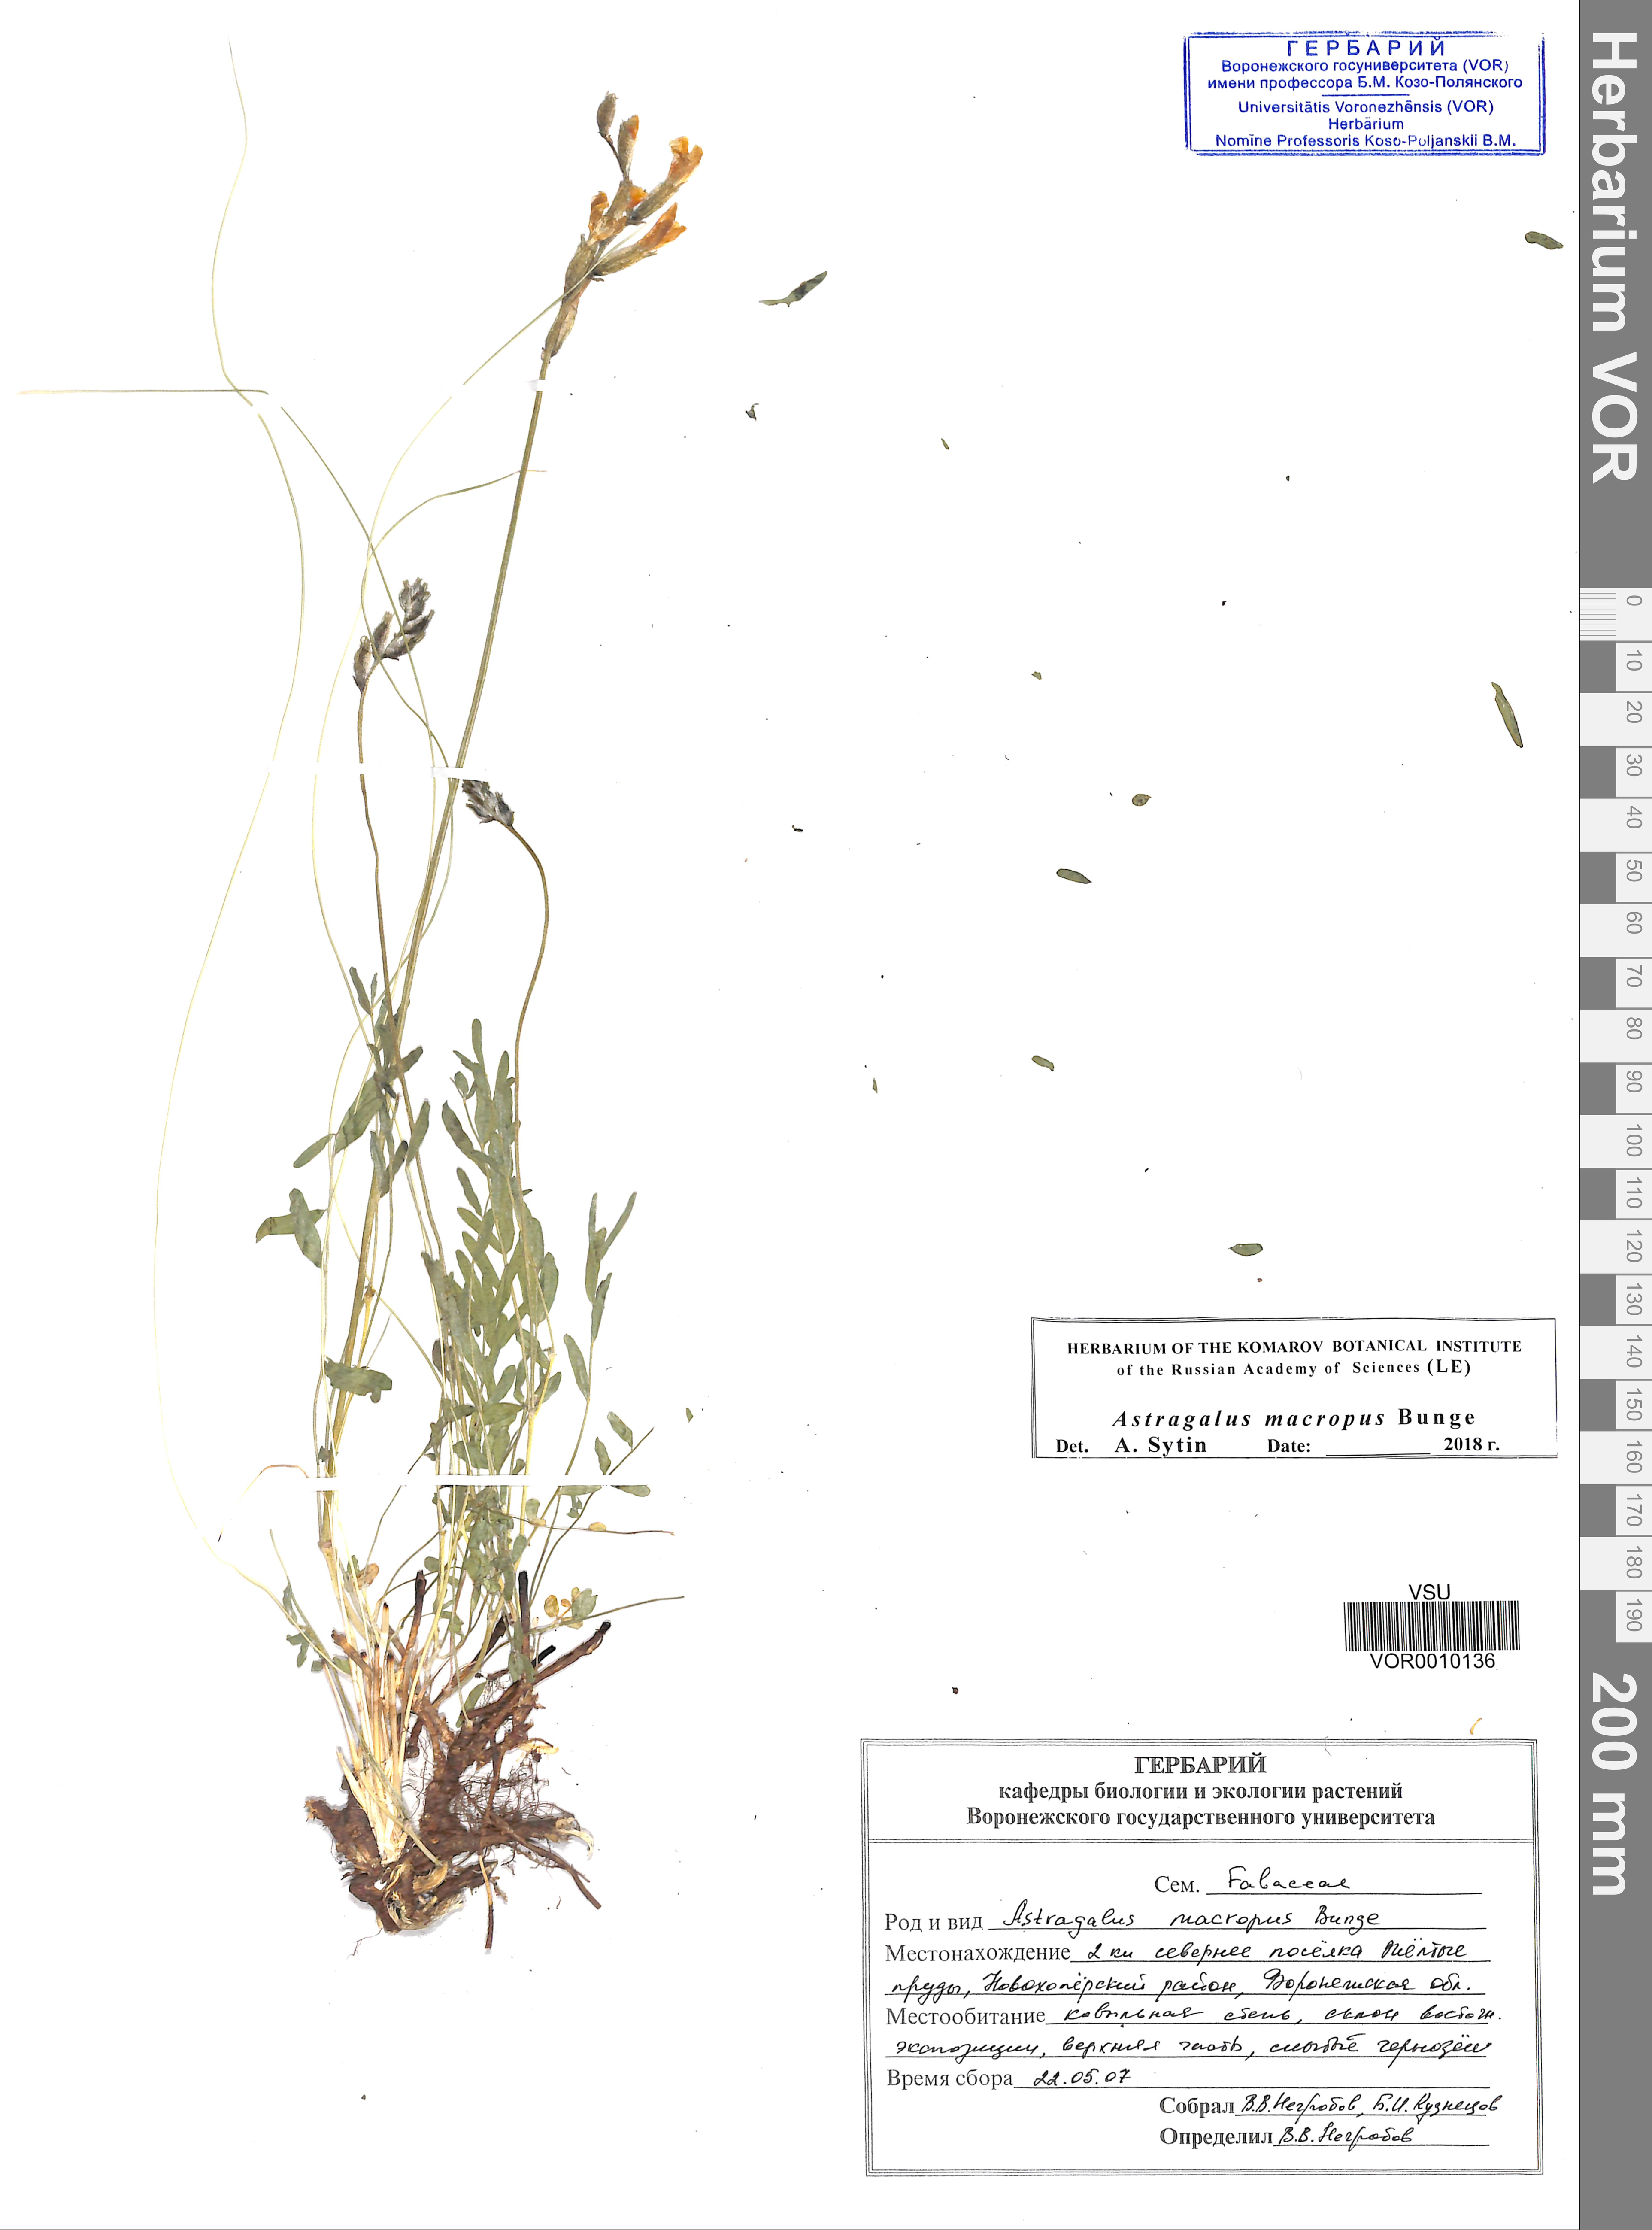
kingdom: Plantae
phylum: Tracheophyta
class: Magnoliopsida
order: Fabales
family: Fabaceae
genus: Astragalus
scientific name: Astragalus macropus
